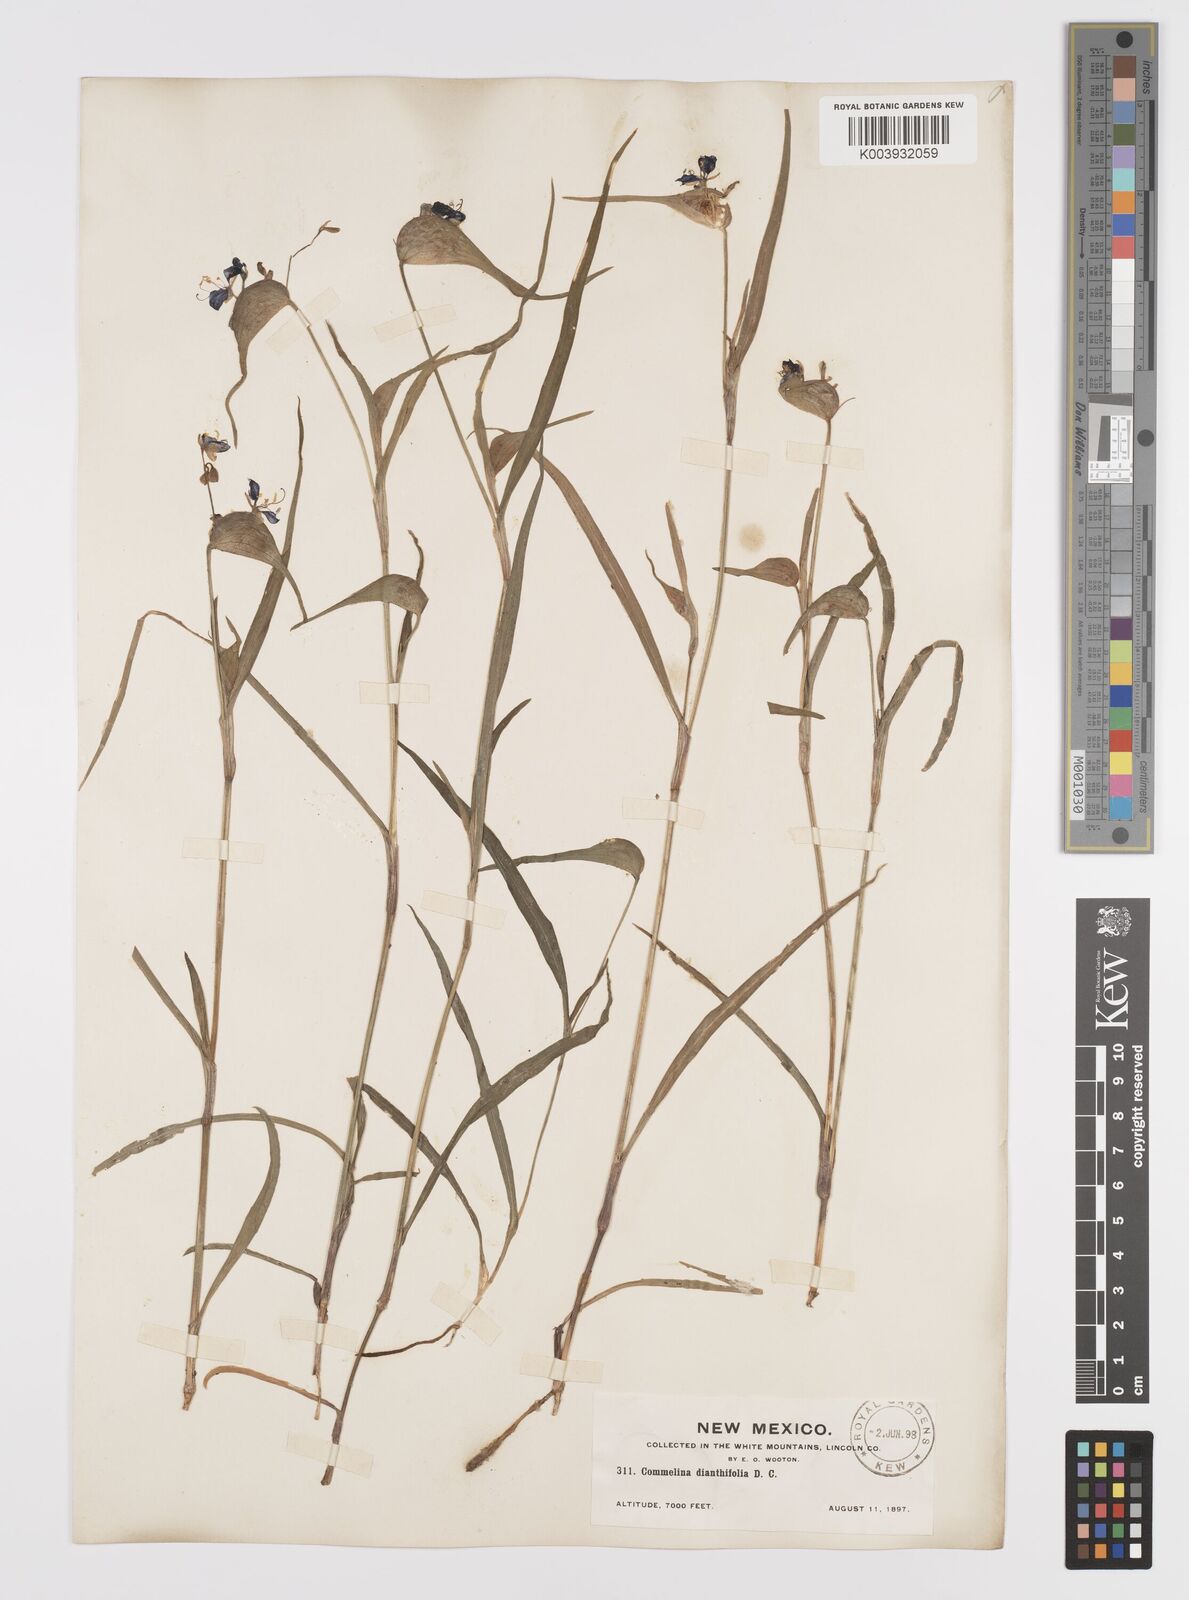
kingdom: Plantae
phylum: Tracheophyta
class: Liliopsida
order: Commelinales
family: Commelinaceae
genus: Commelina
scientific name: Commelina dianthifolia
